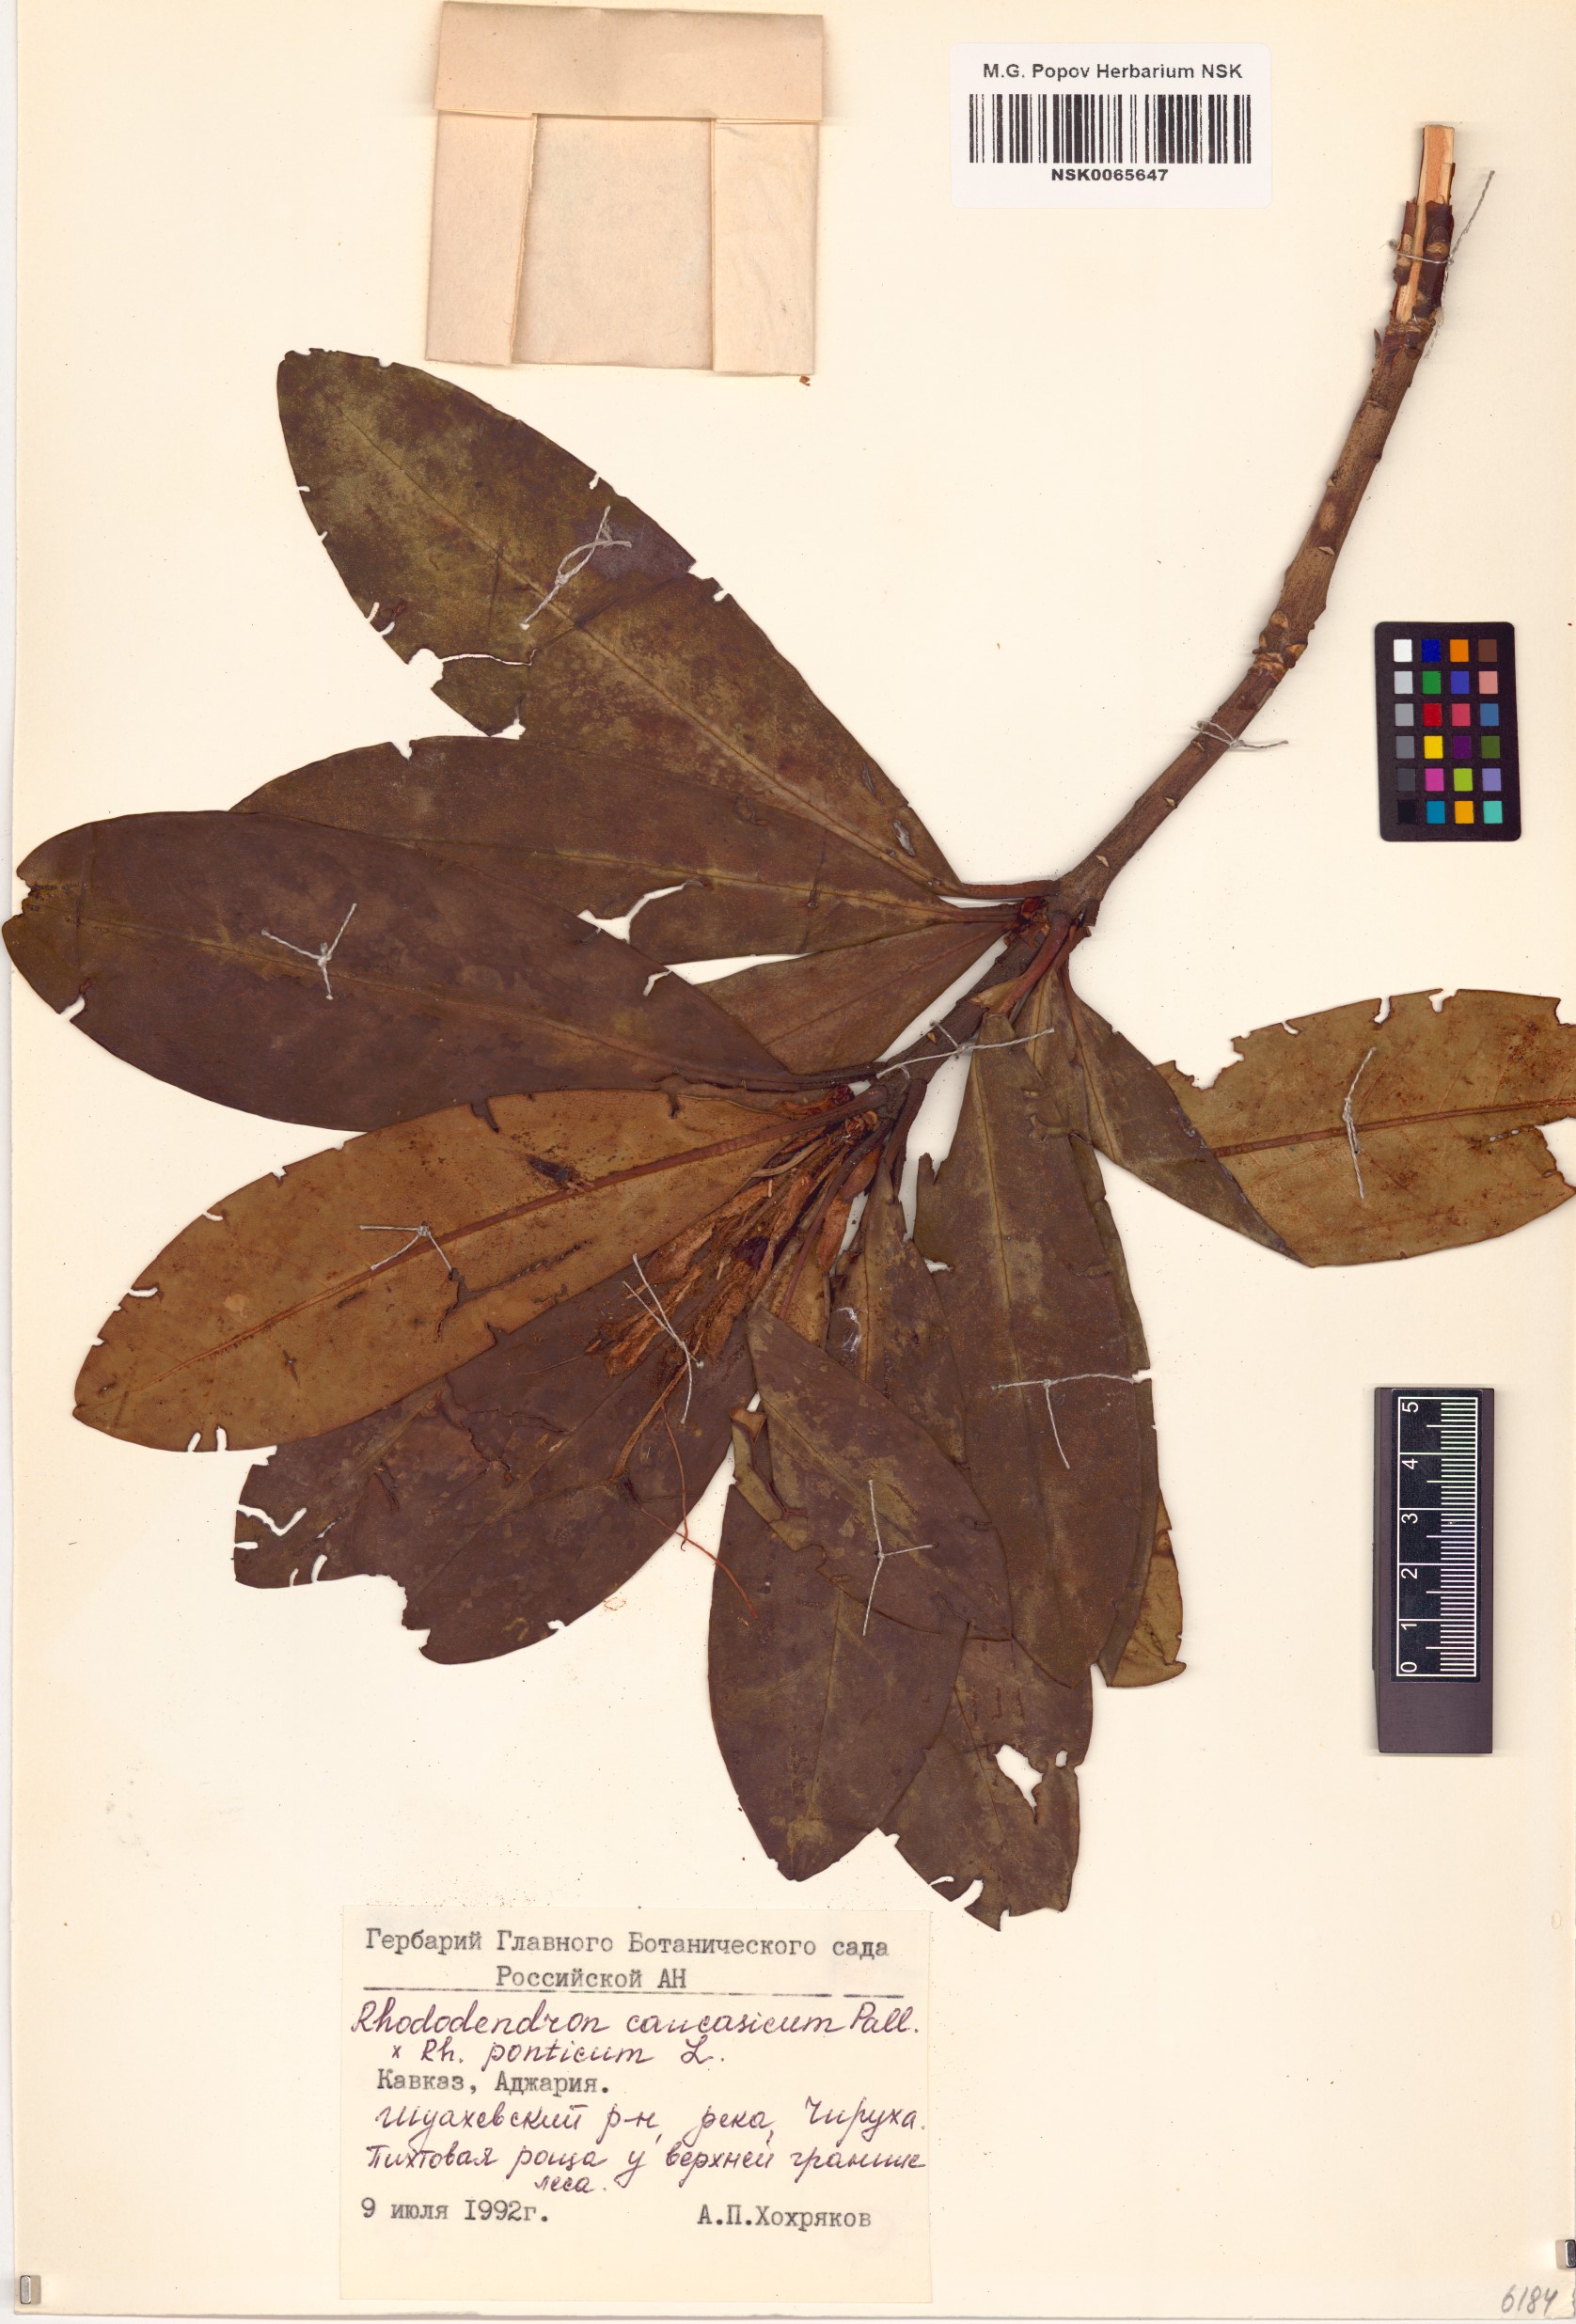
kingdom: Plantae
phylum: Tracheophyta
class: Magnoliopsida
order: Ericales
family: Ericaceae
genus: Rhododendron
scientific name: Rhododendron caucasicum
